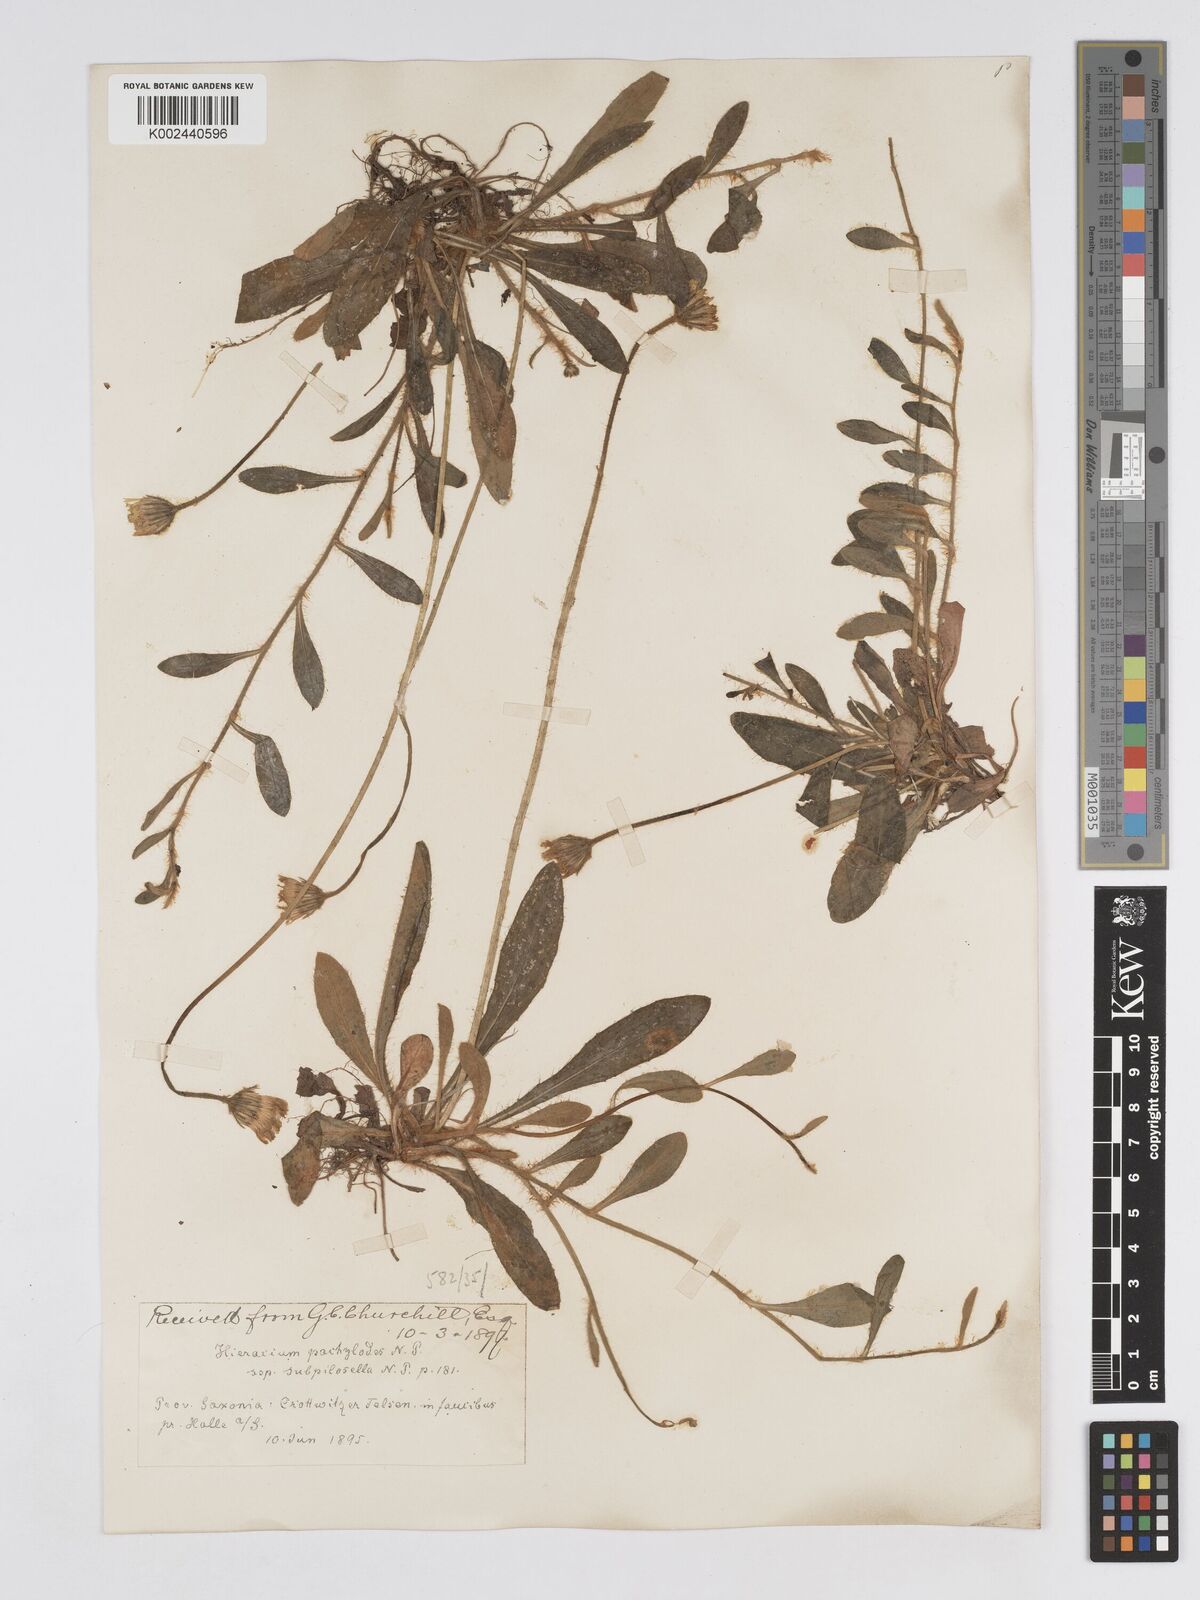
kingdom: Plantae
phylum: Tracheophyta
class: Magnoliopsida
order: Asterales
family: Asteraceae
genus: Pilosella
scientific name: Pilosella longisquama
